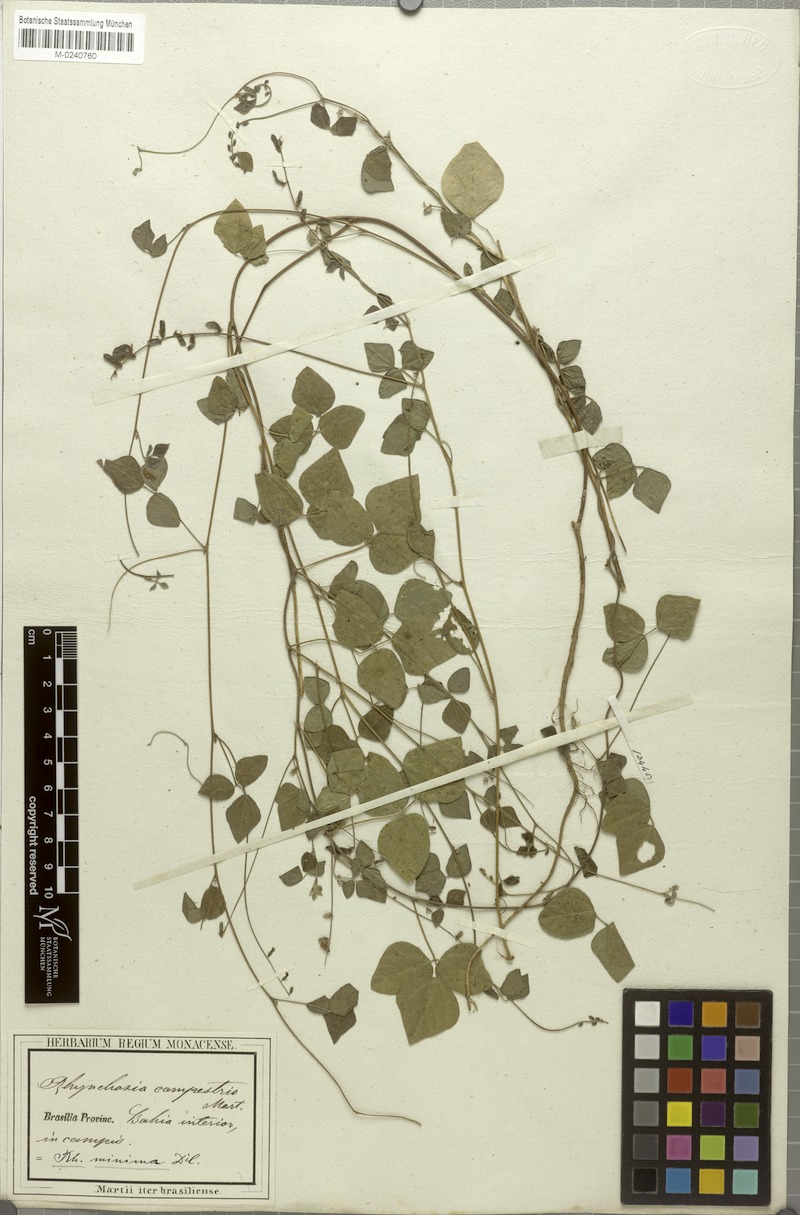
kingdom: Plantae
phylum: Tracheophyta
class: Magnoliopsida
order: Fabales
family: Fabaceae
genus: Rhynchosia
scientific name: Rhynchosia minima
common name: Least snoutbean
